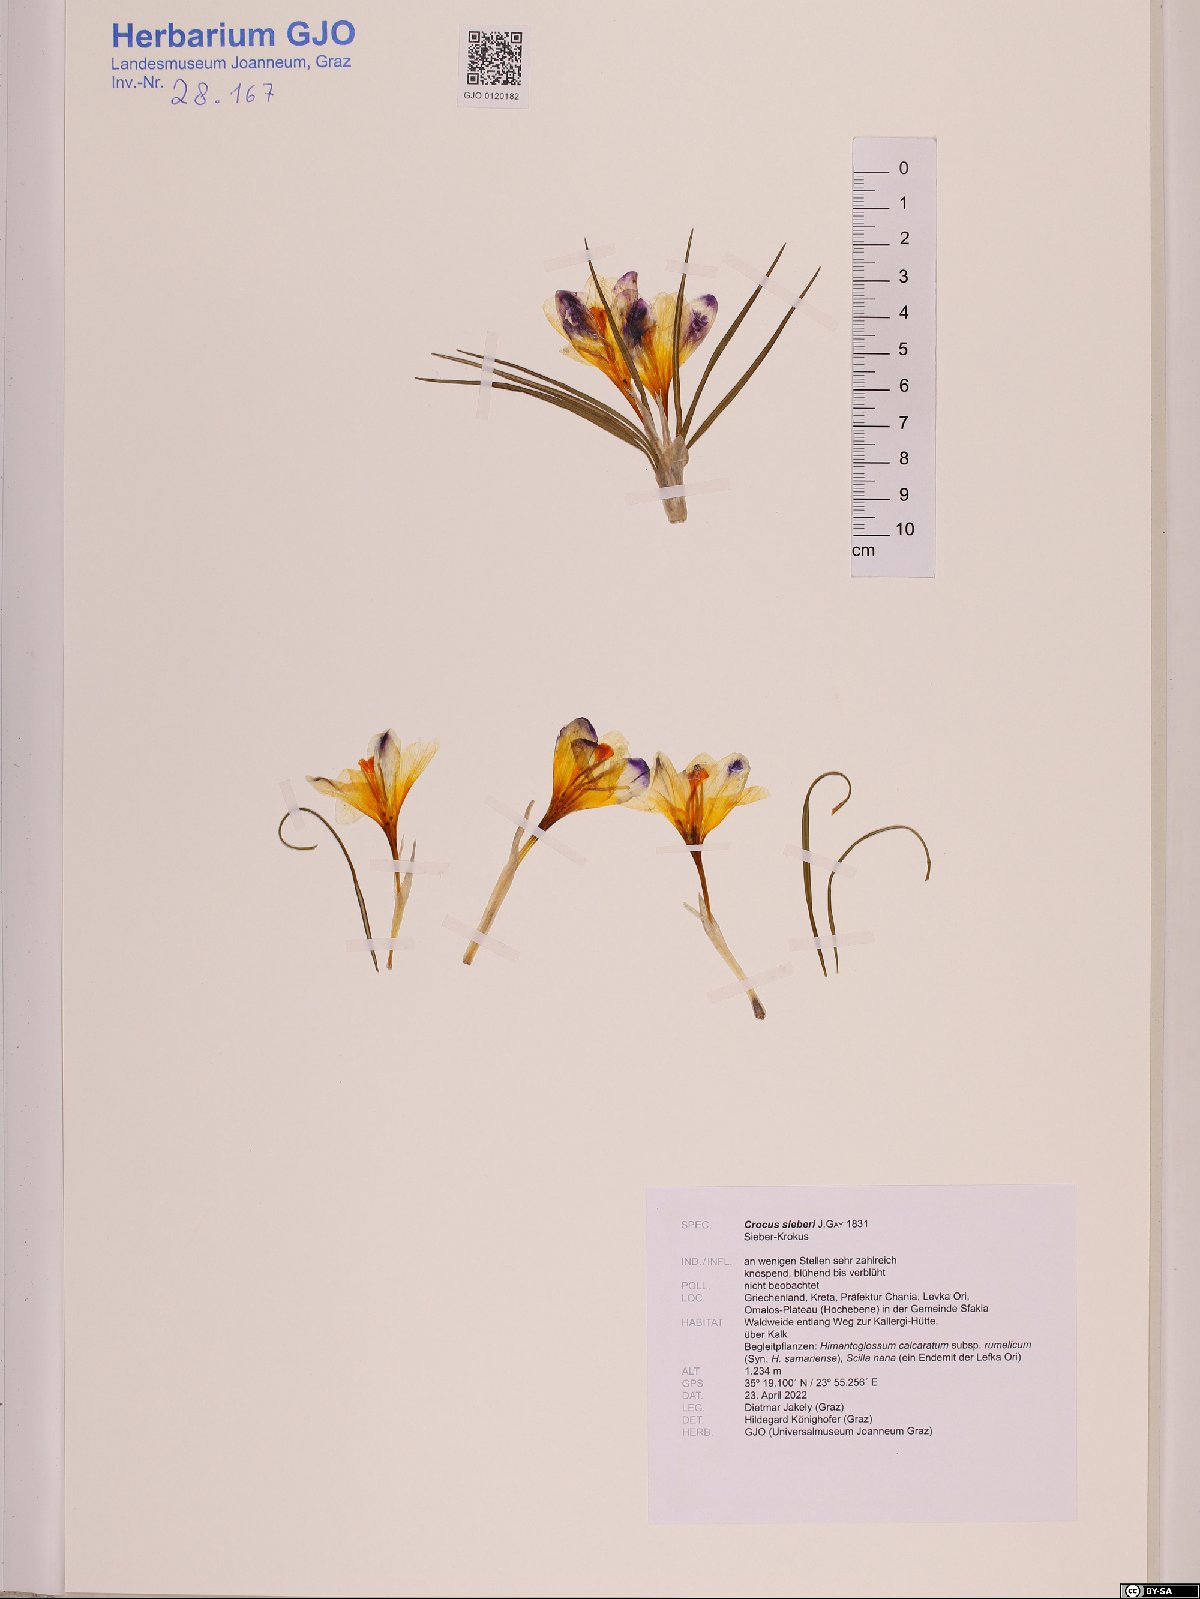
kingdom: Plantae
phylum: Tracheophyta
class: Liliopsida
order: Asparagales
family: Iridaceae
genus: Crocus
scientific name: Crocus sieberi
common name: Sieber's crocus
